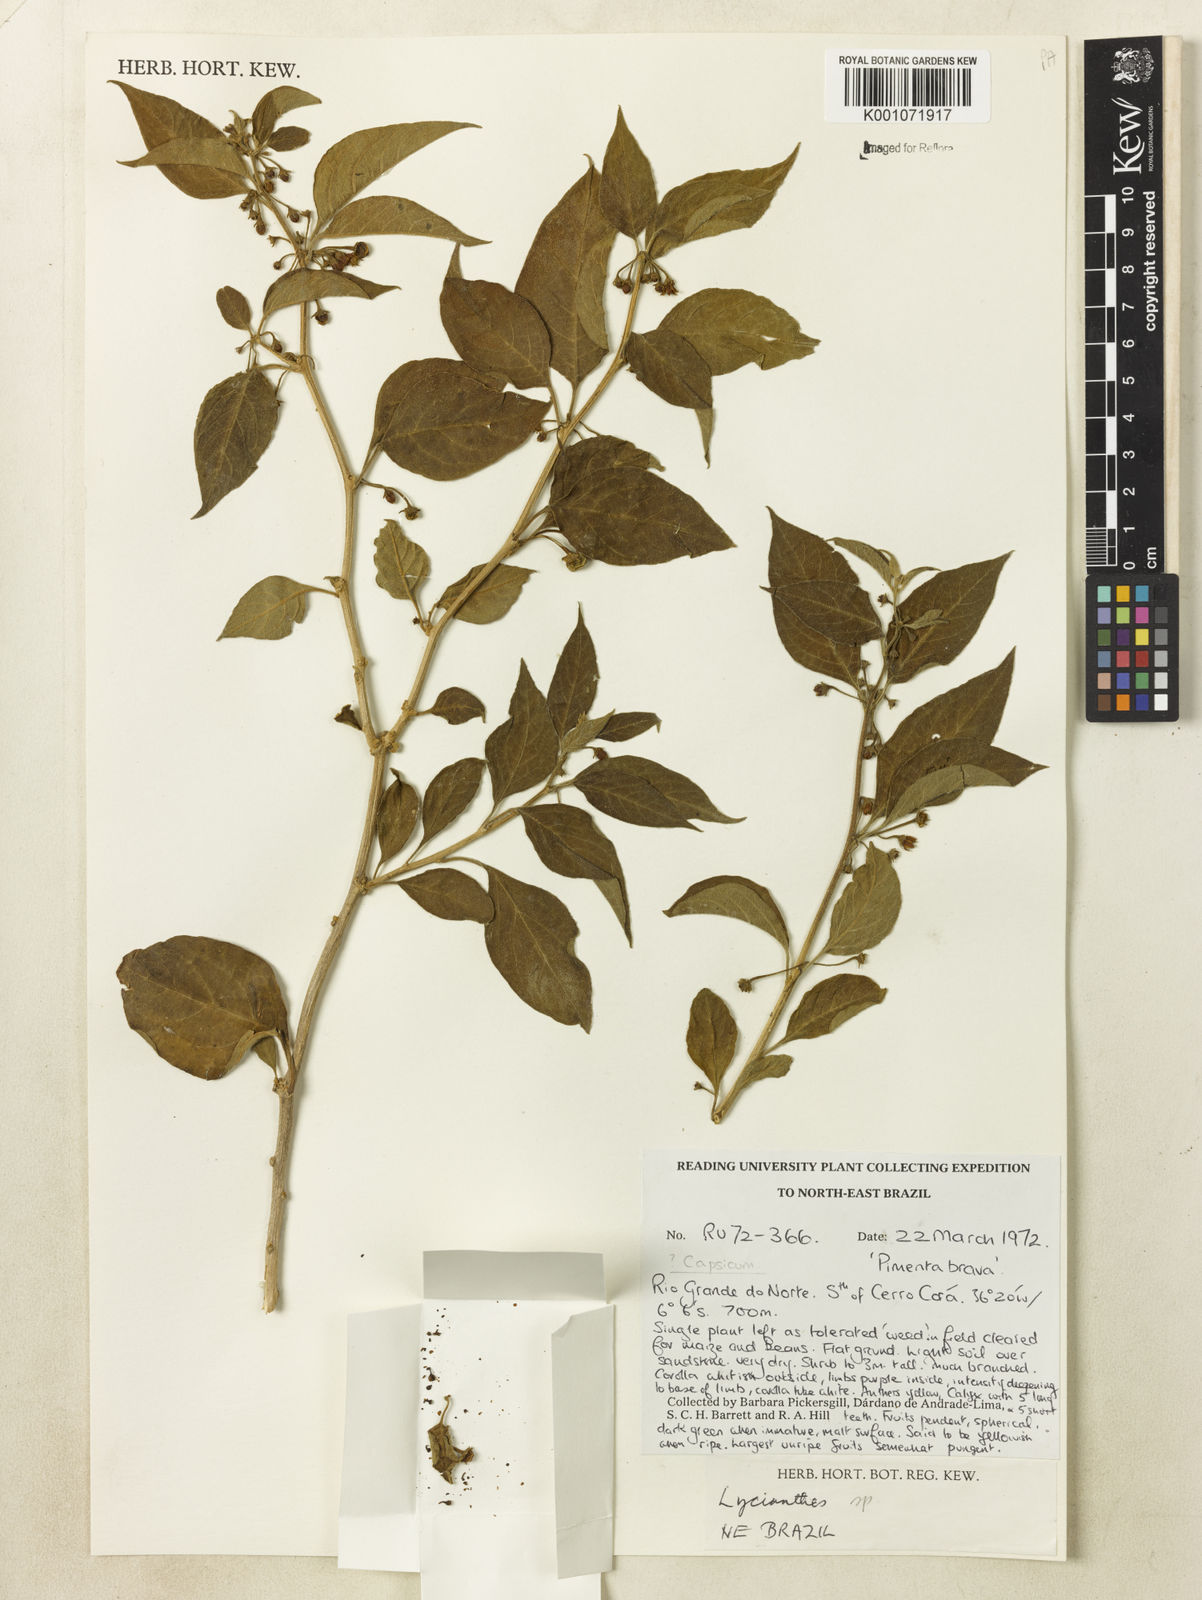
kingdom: Plantae
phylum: Tracheophyta
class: Magnoliopsida
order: Solanales
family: Solanaceae
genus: Lycianthes
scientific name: Lycianthes
